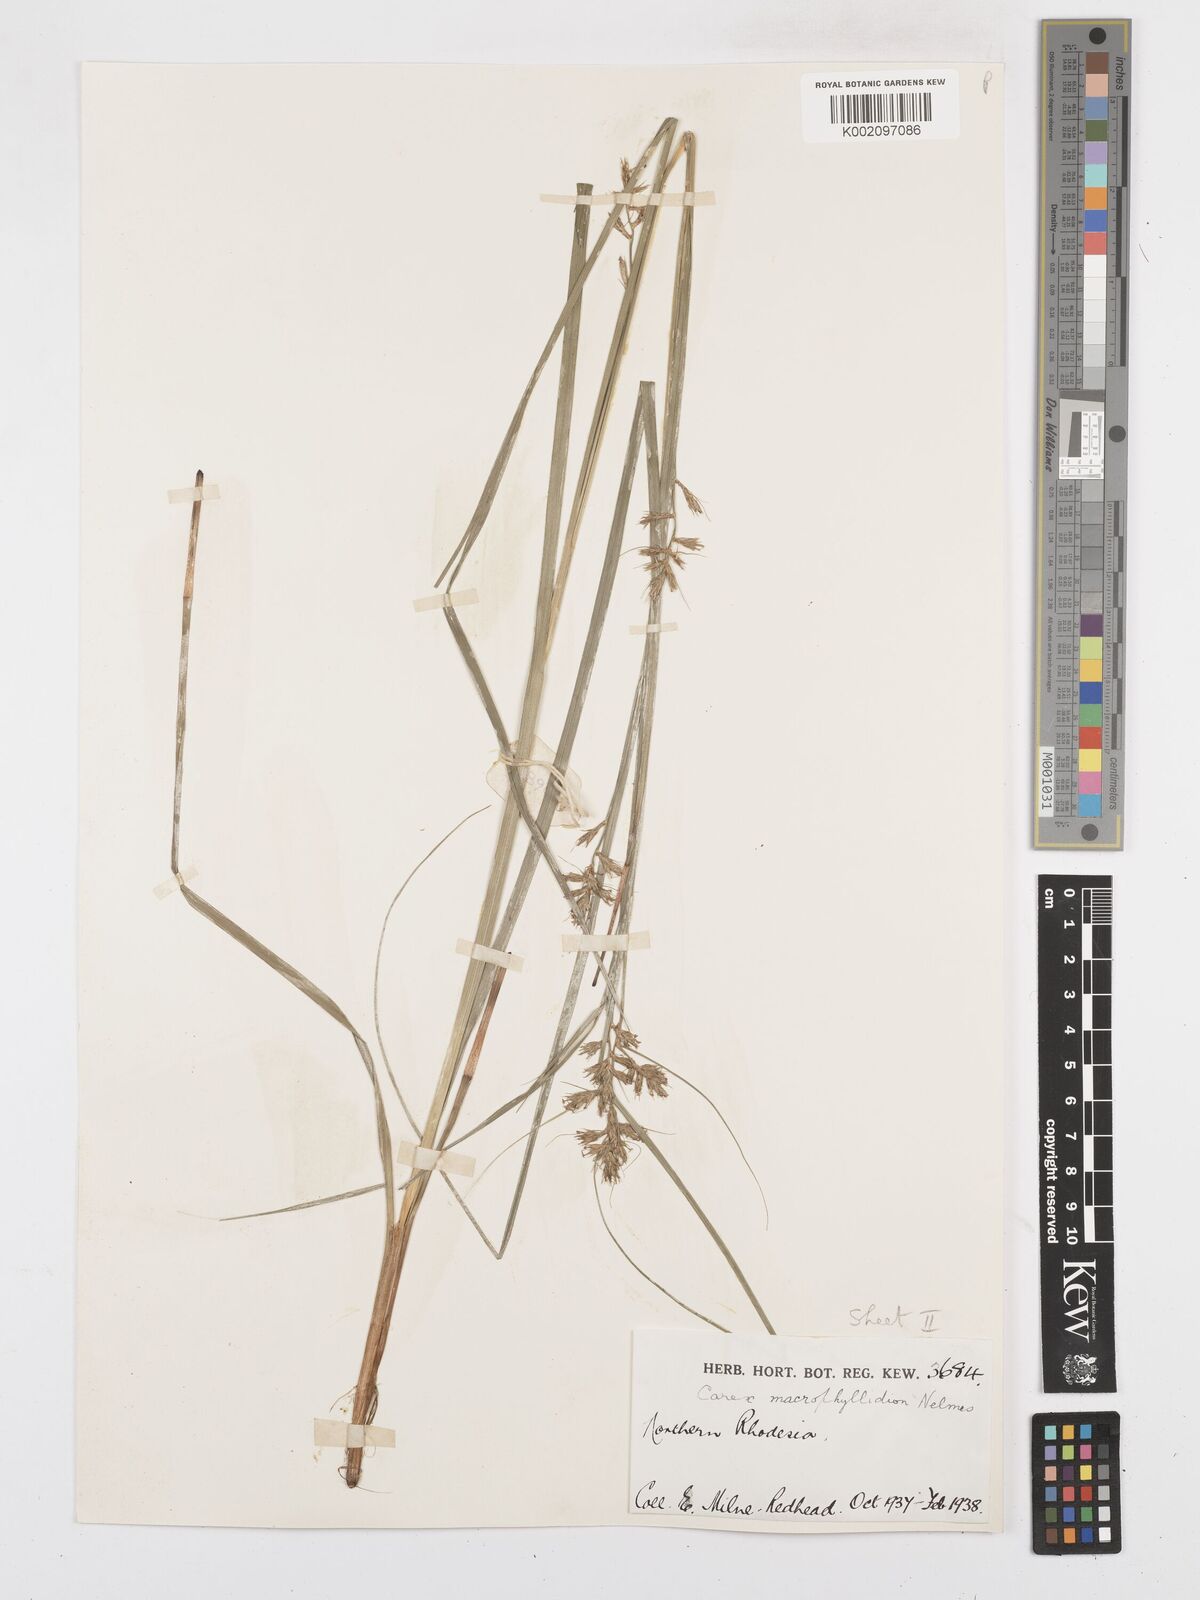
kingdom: Plantae
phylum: Tracheophyta
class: Liliopsida
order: Poales
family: Cyperaceae
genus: Carex
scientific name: Carex macrophyllidion
